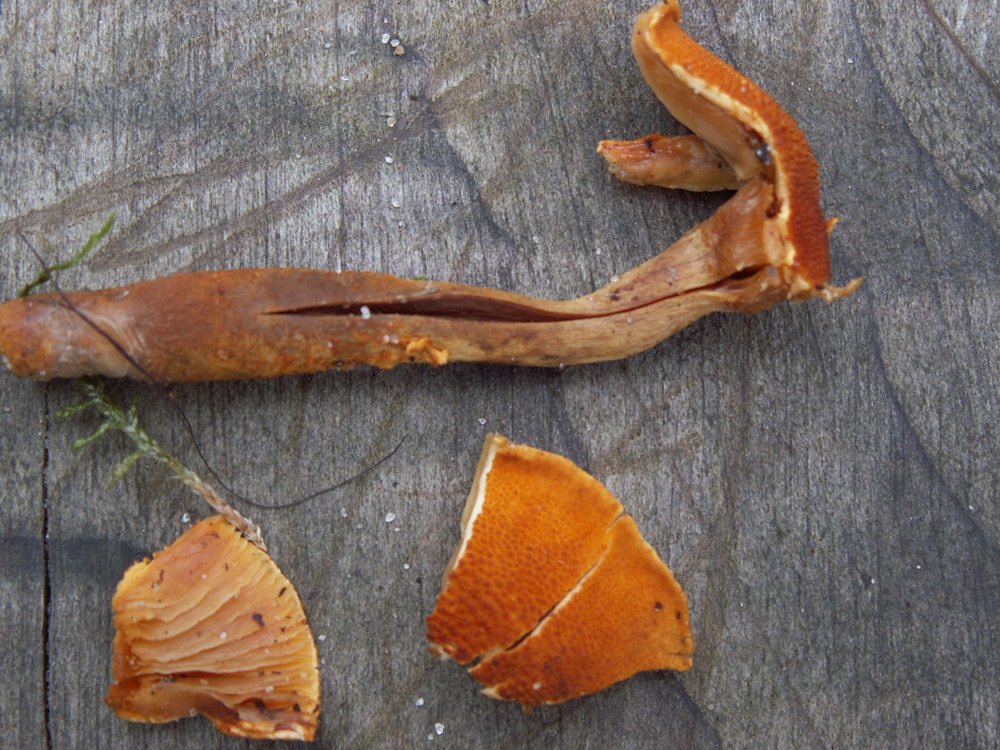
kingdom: Fungi
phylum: Basidiomycota
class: Agaricomycetes
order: Agaricales
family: Tricholomataceae
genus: Cystoderma
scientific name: Cystoderma jasonis
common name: gulkødet grynhat
